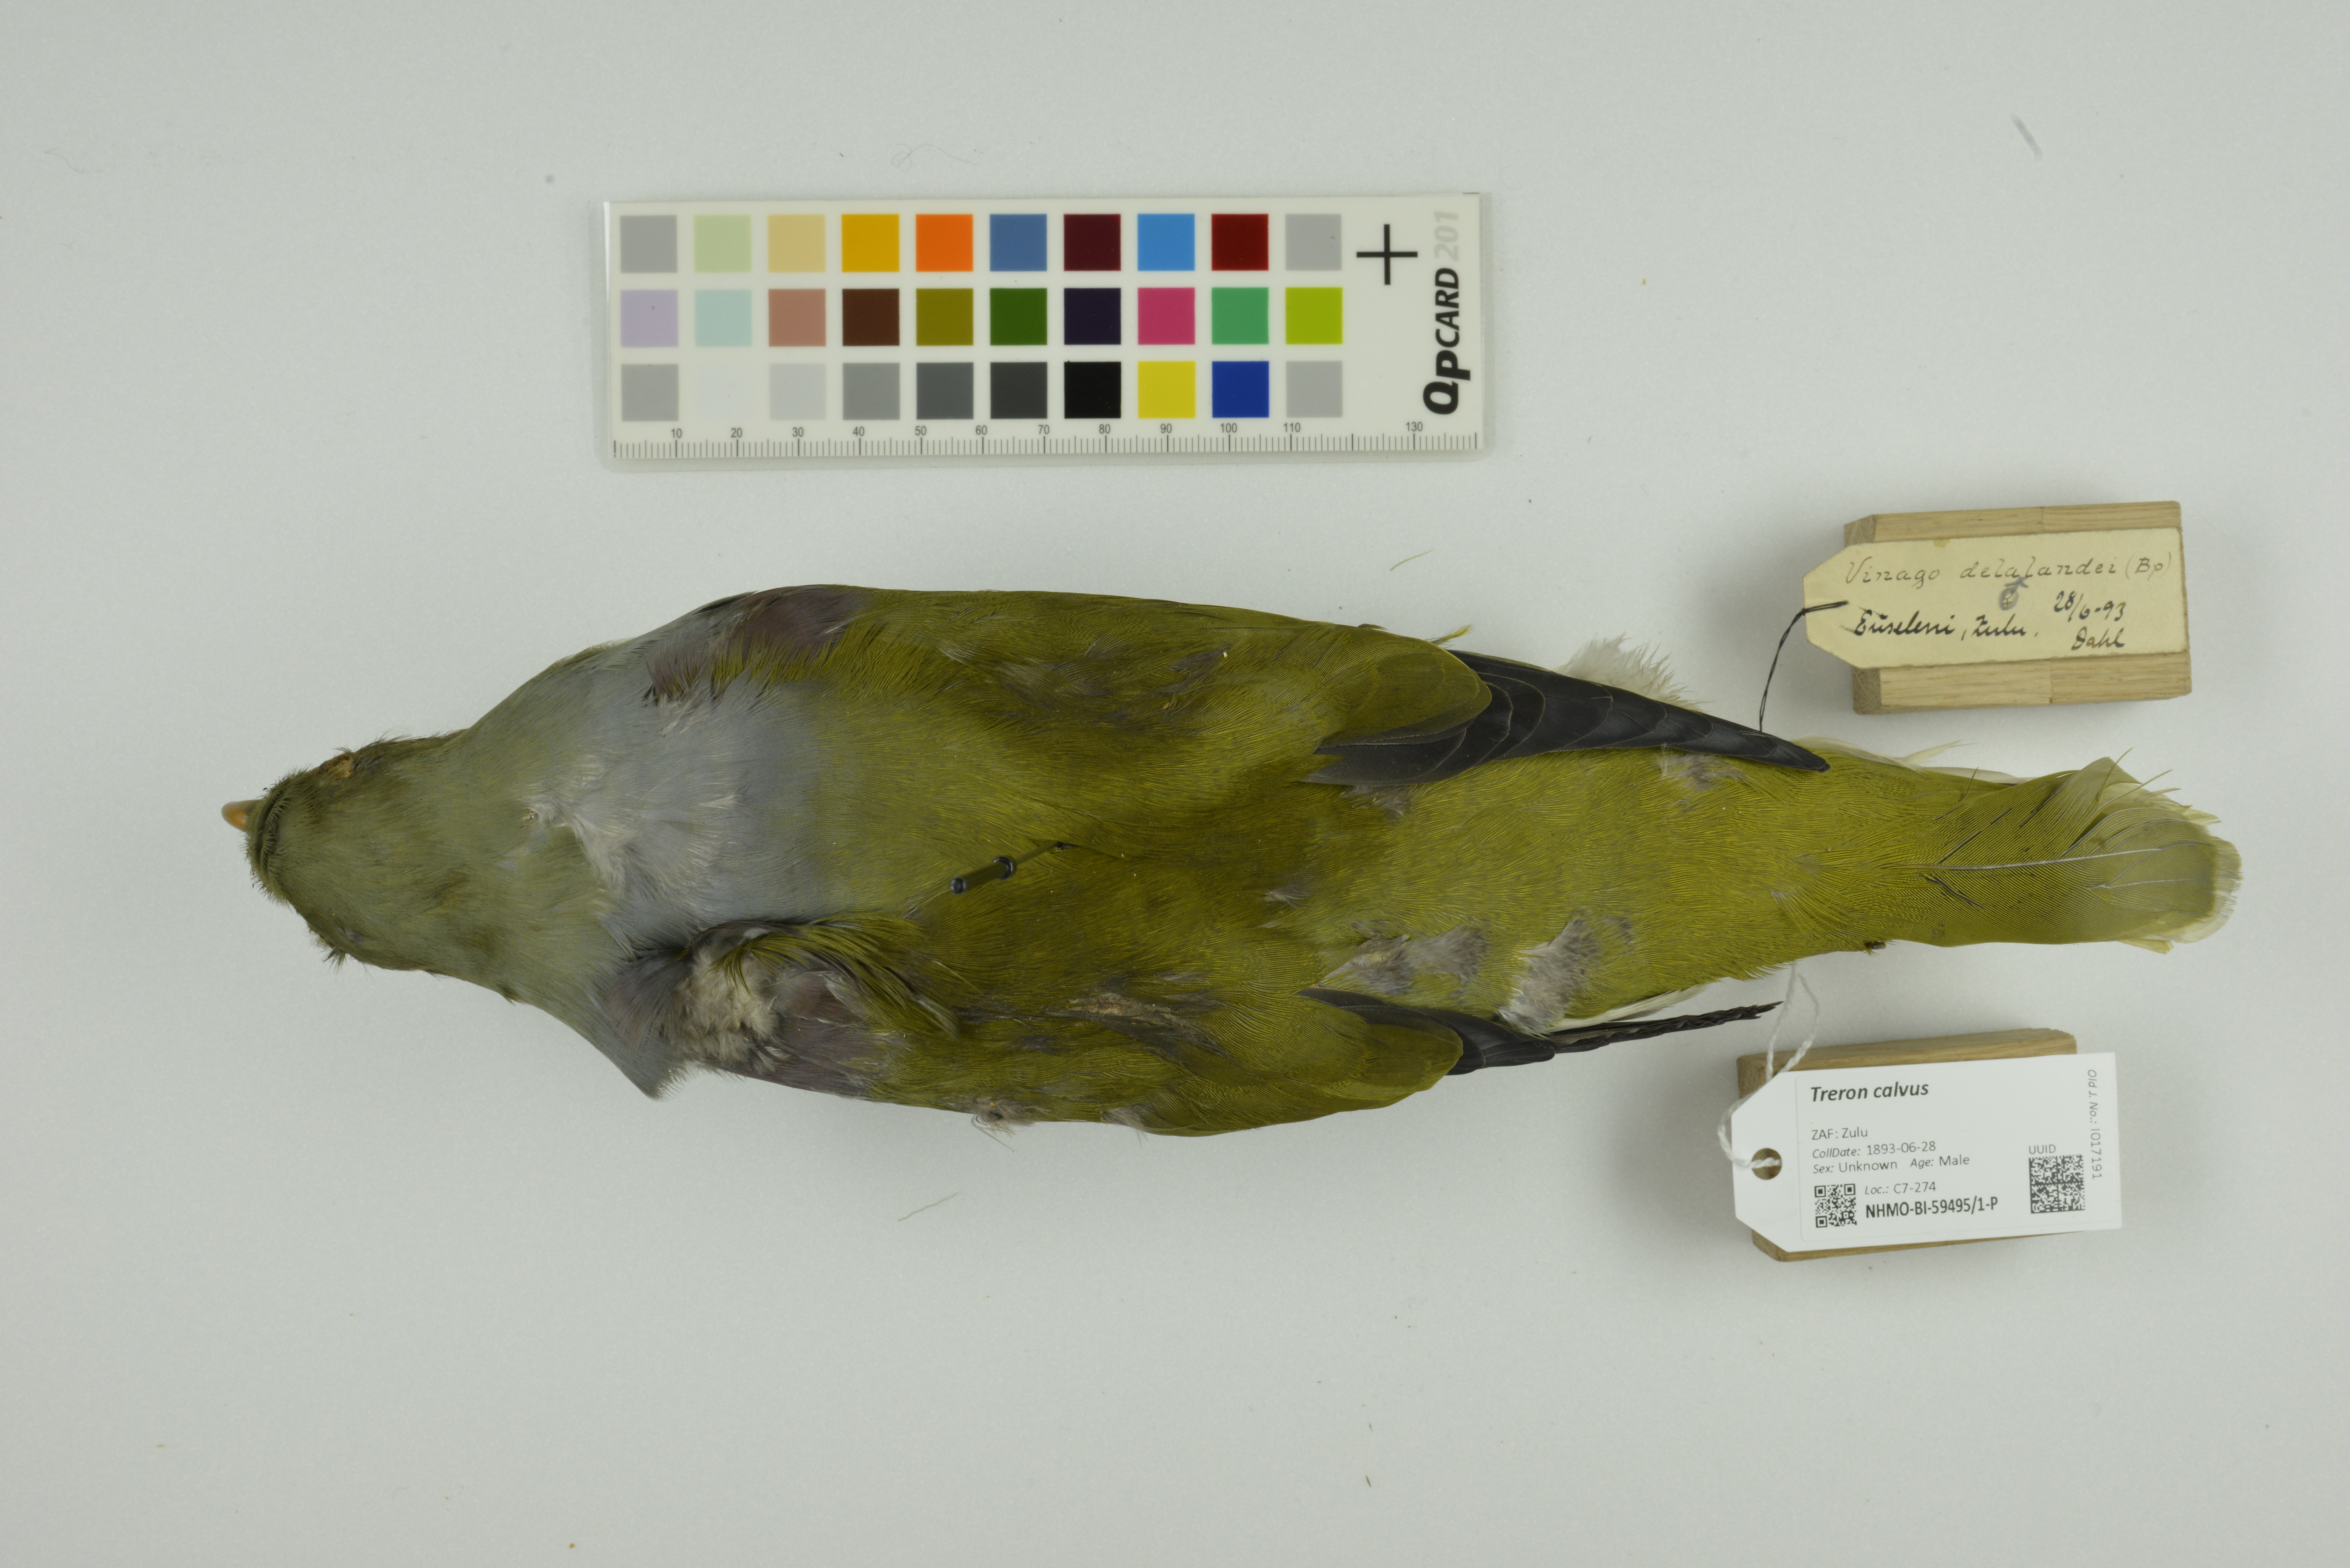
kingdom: Animalia
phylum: Chordata
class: Aves
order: Columbiformes
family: Columbidae
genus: Treron
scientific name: Treron calvus
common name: African green pigeon
